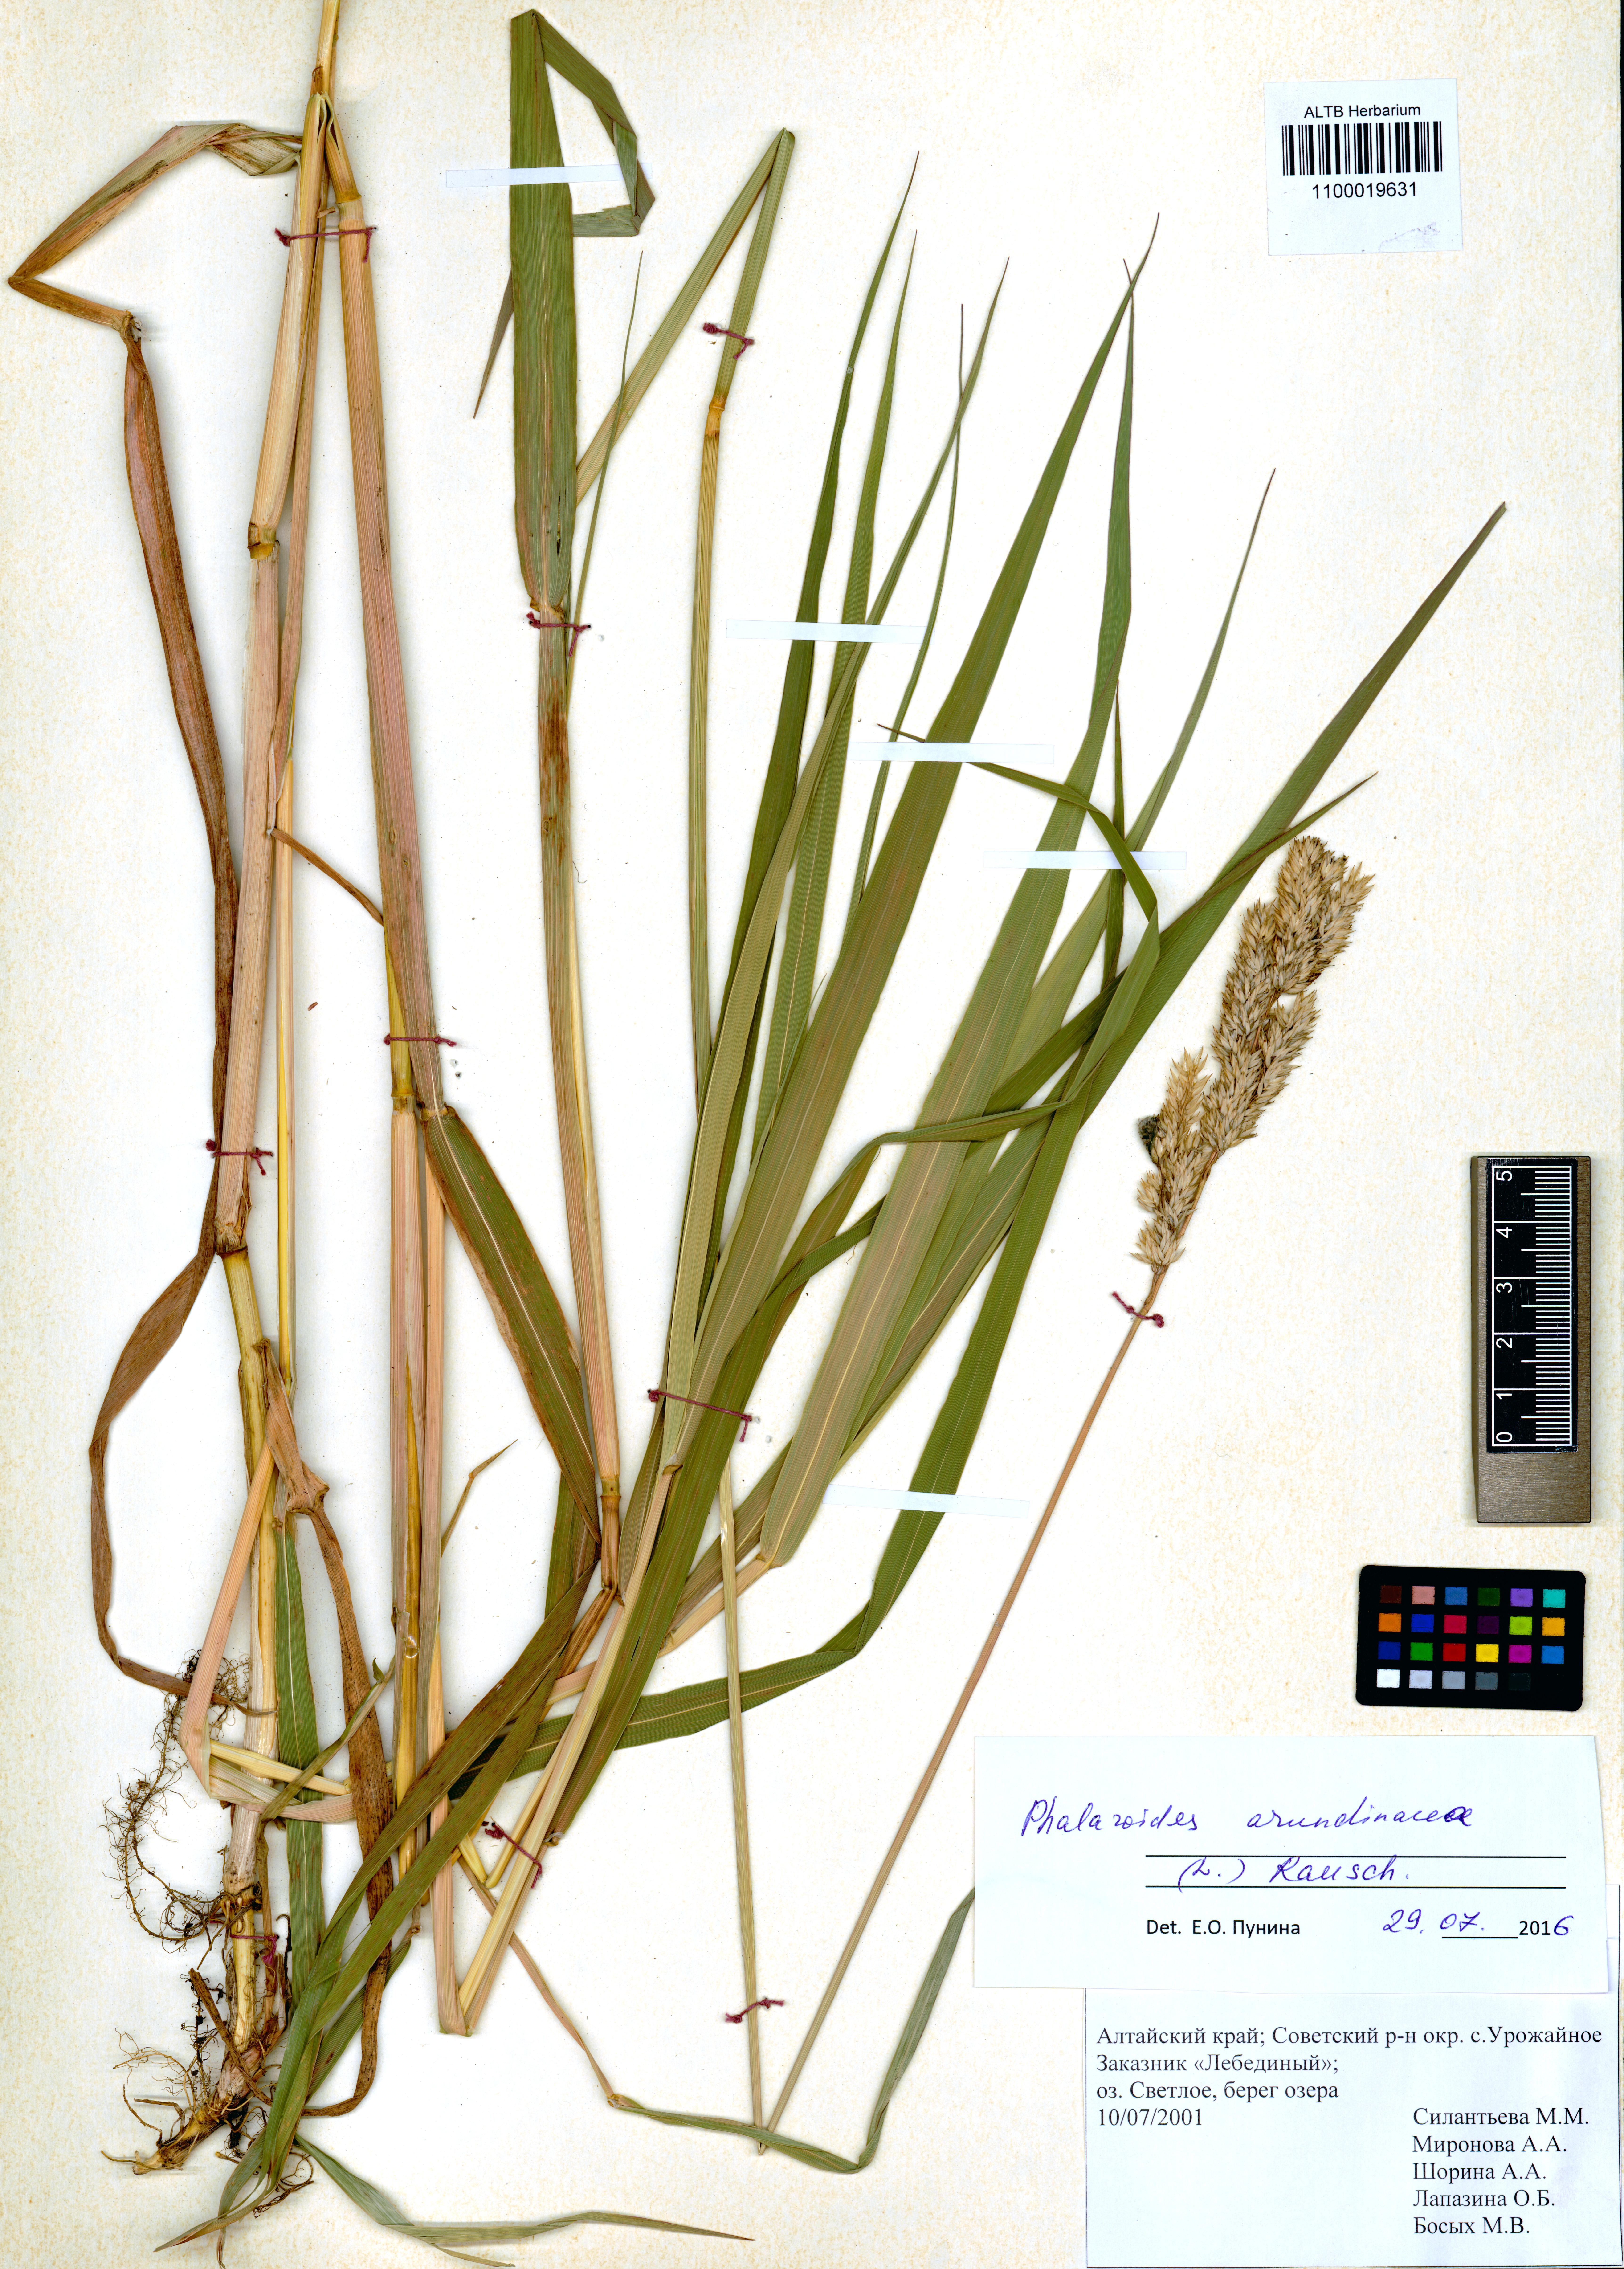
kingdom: Plantae
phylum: Tracheophyta
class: Liliopsida
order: Poales
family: Poaceae
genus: Phalaris
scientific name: Phalaris arundinacea
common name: Reed canary-grass
